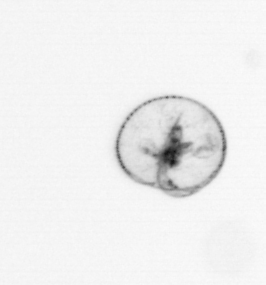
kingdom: Chromista
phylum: Myzozoa
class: Dinophyceae
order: Noctilucales
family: Noctilucaceae
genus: Noctiluca
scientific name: Noctiluca scintillans
